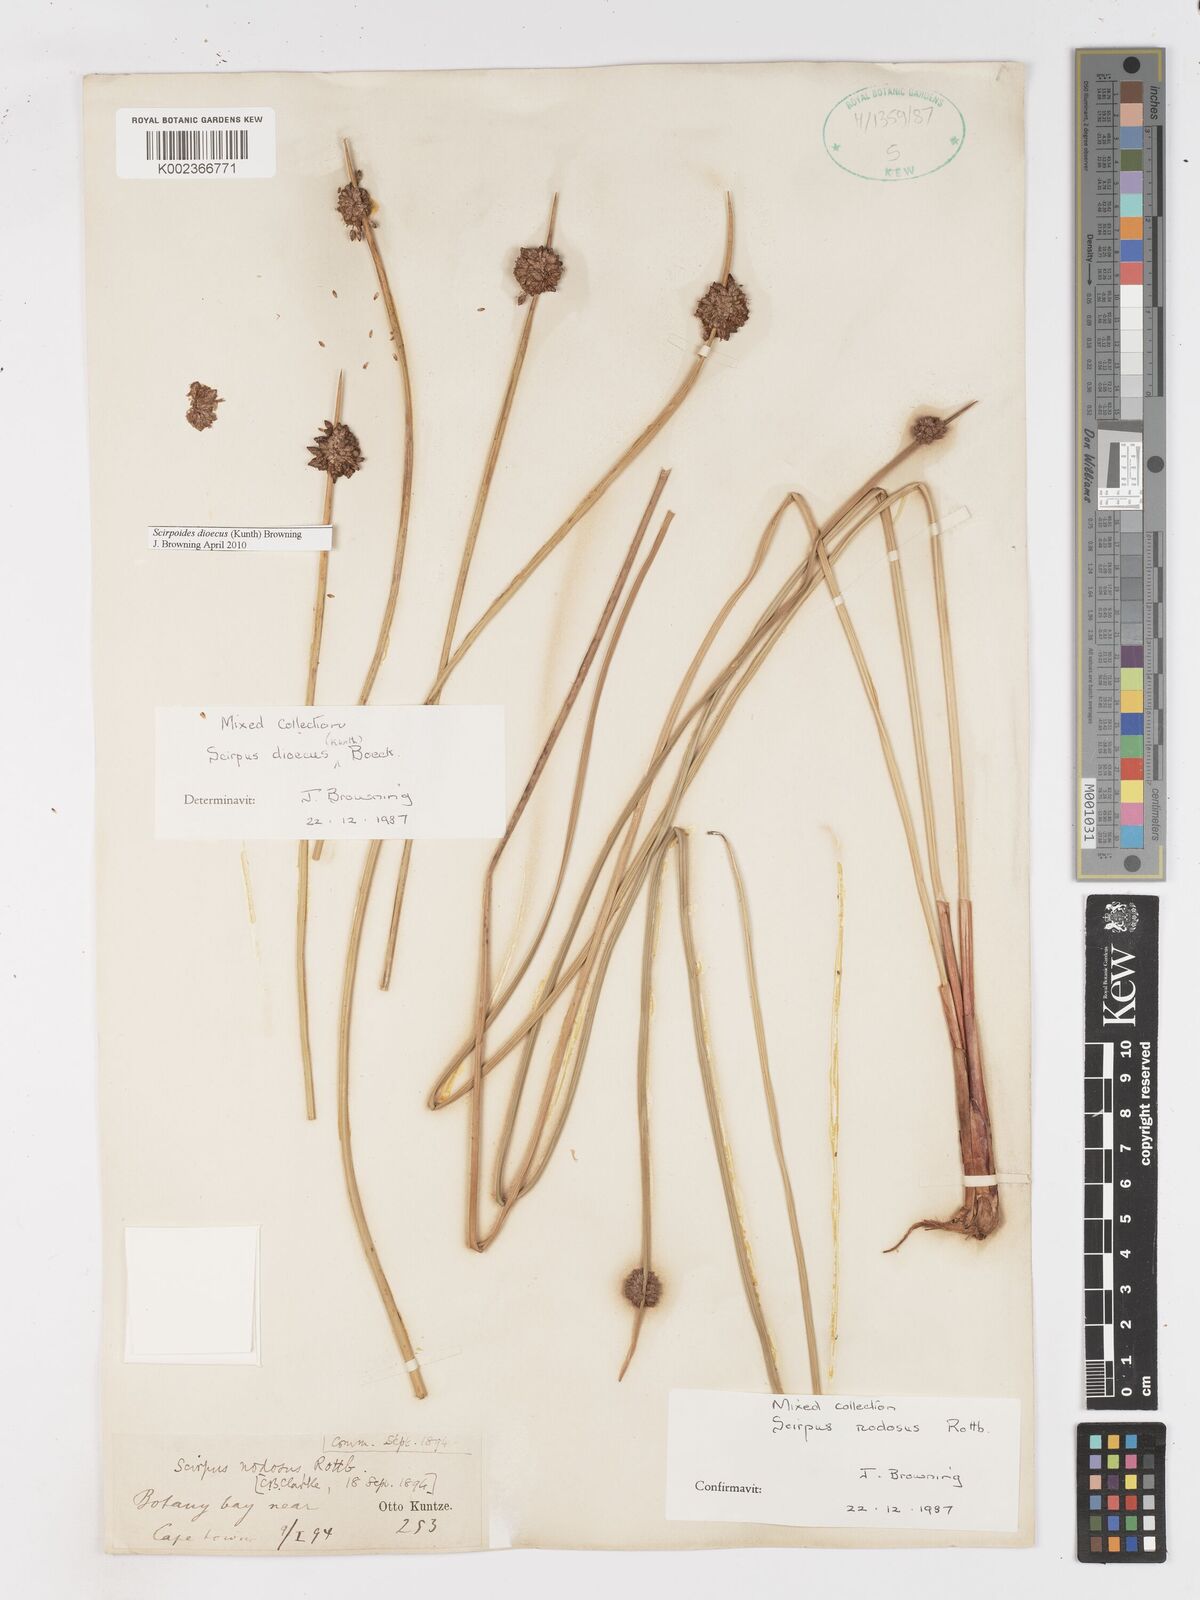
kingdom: Plantae
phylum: Tracheophyta
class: Liliopsida
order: Poales
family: Cyperaceae
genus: Afroscirpoides
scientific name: Afroscirpoides dioeca
